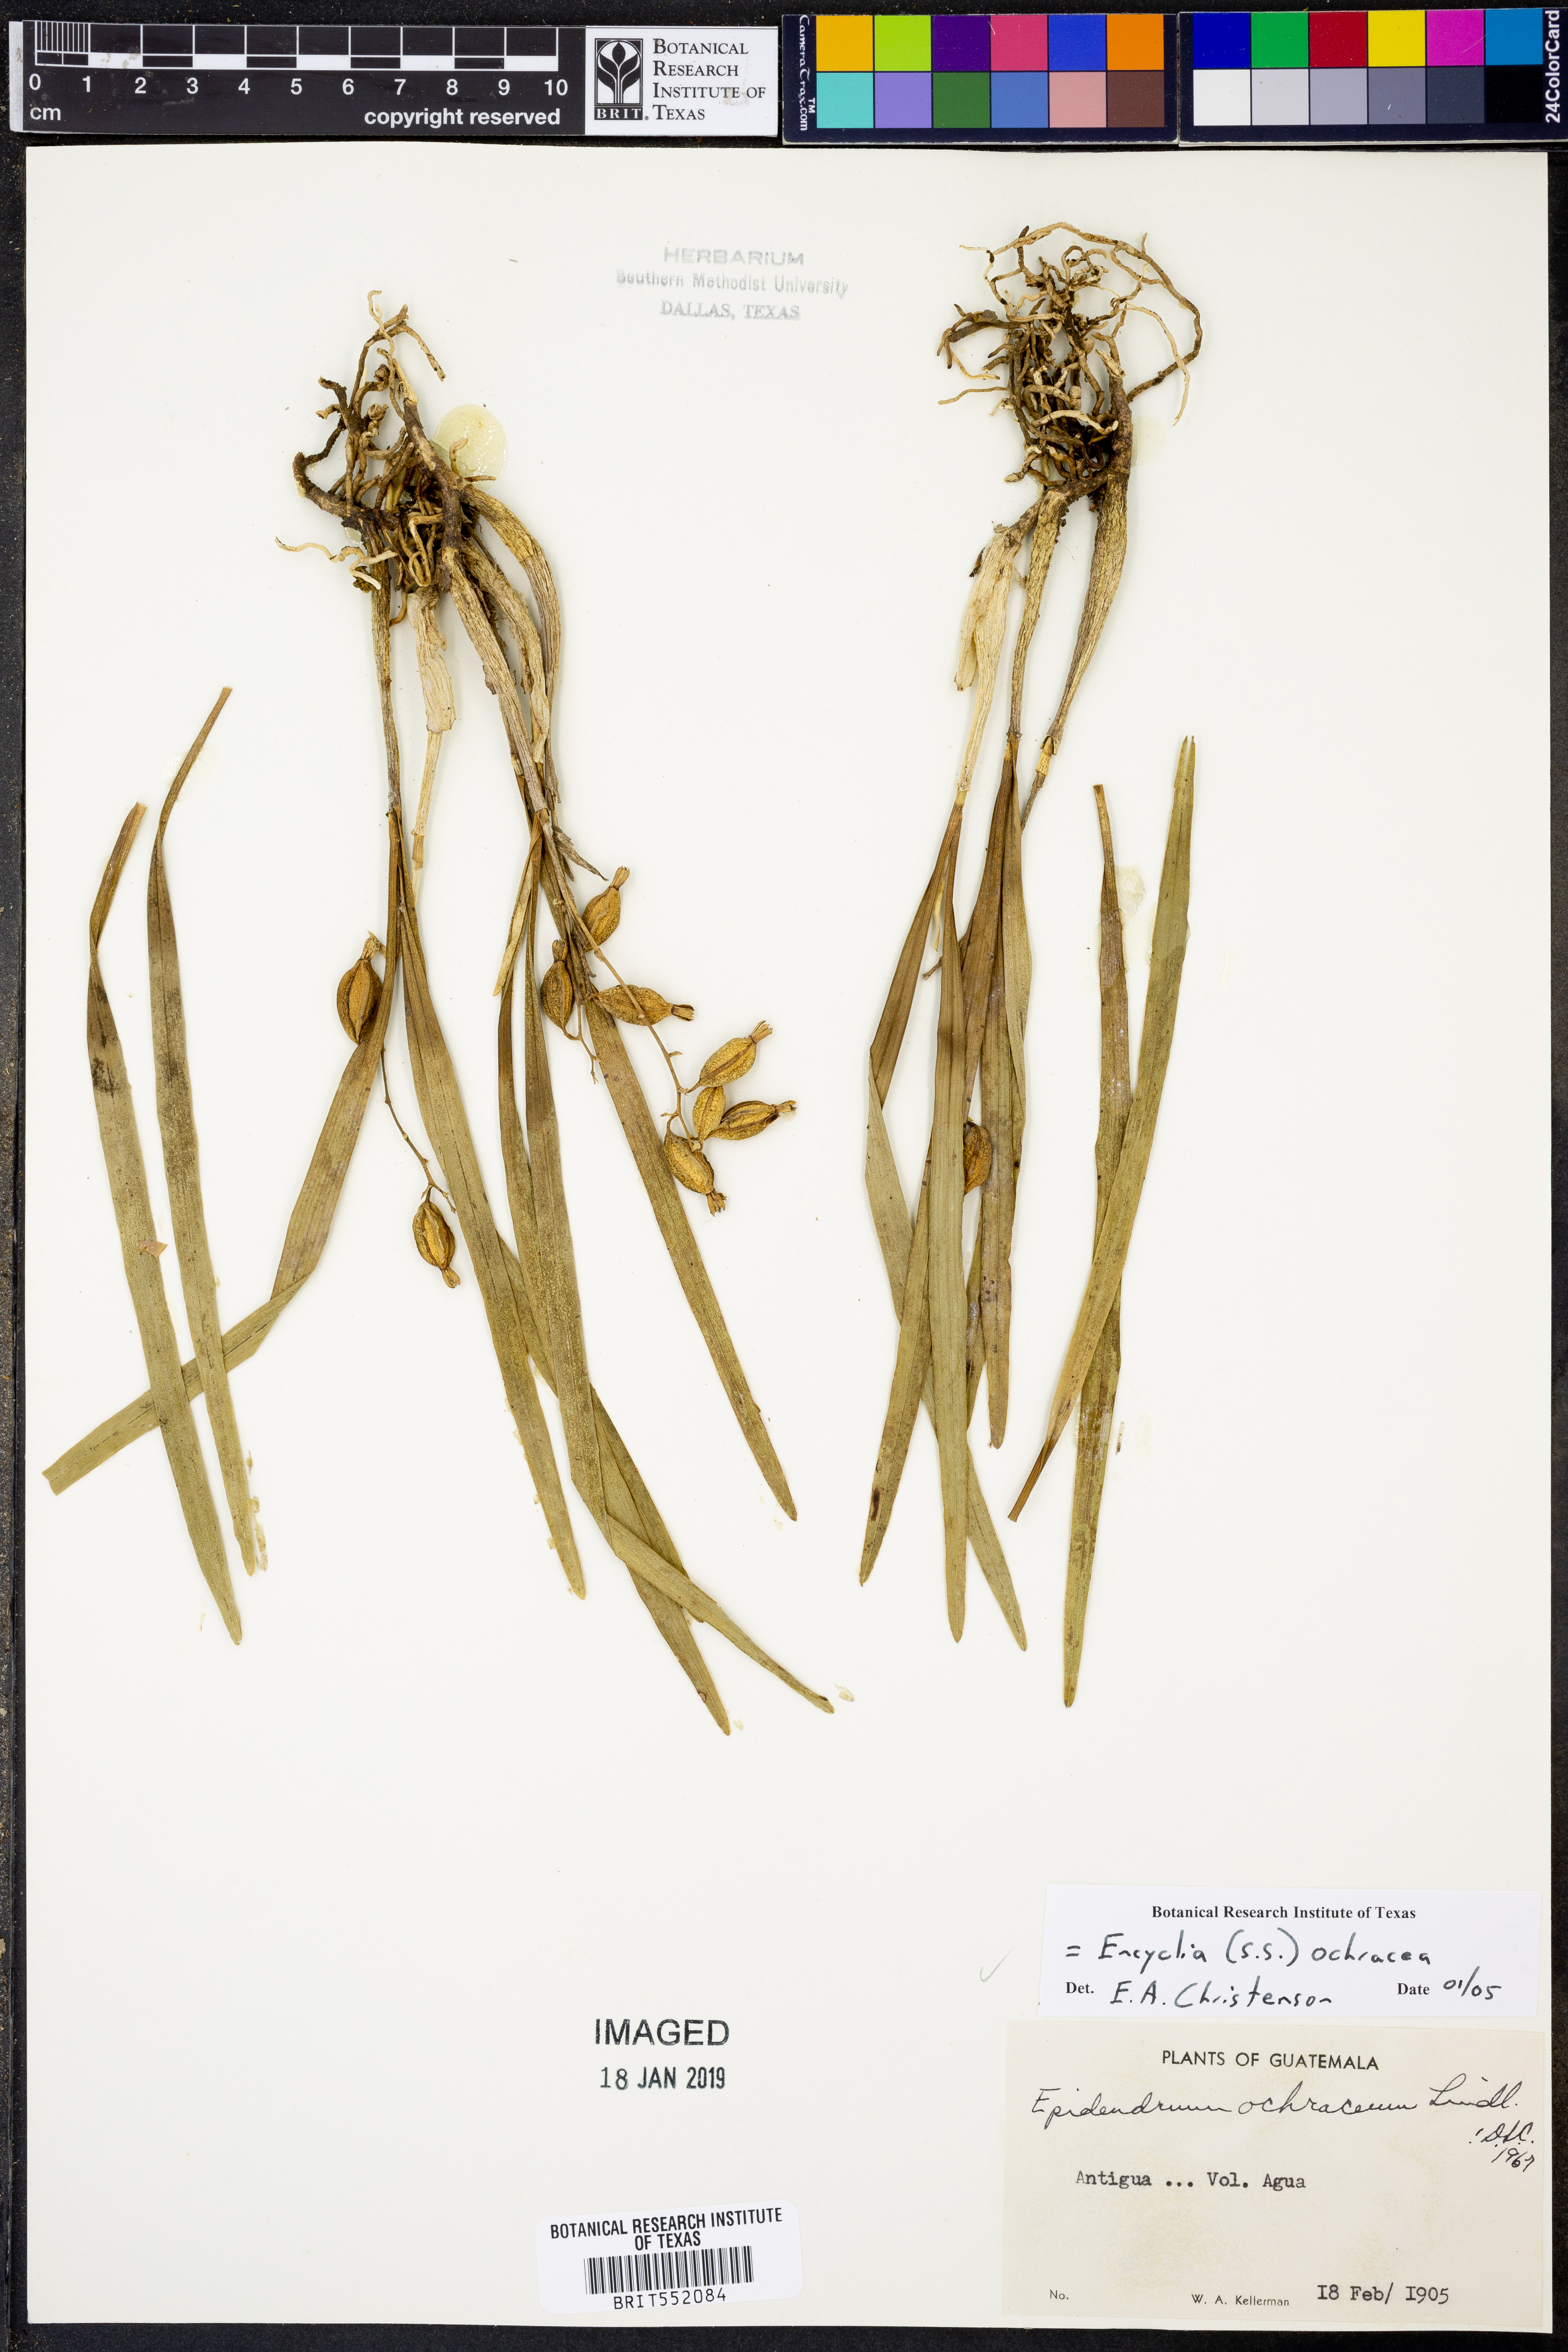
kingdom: Plantae
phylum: Tracheophyta
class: Liliopsida
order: Asparagales
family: Orchidaceae
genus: Prosthechea
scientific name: Prosthechea ochracea
